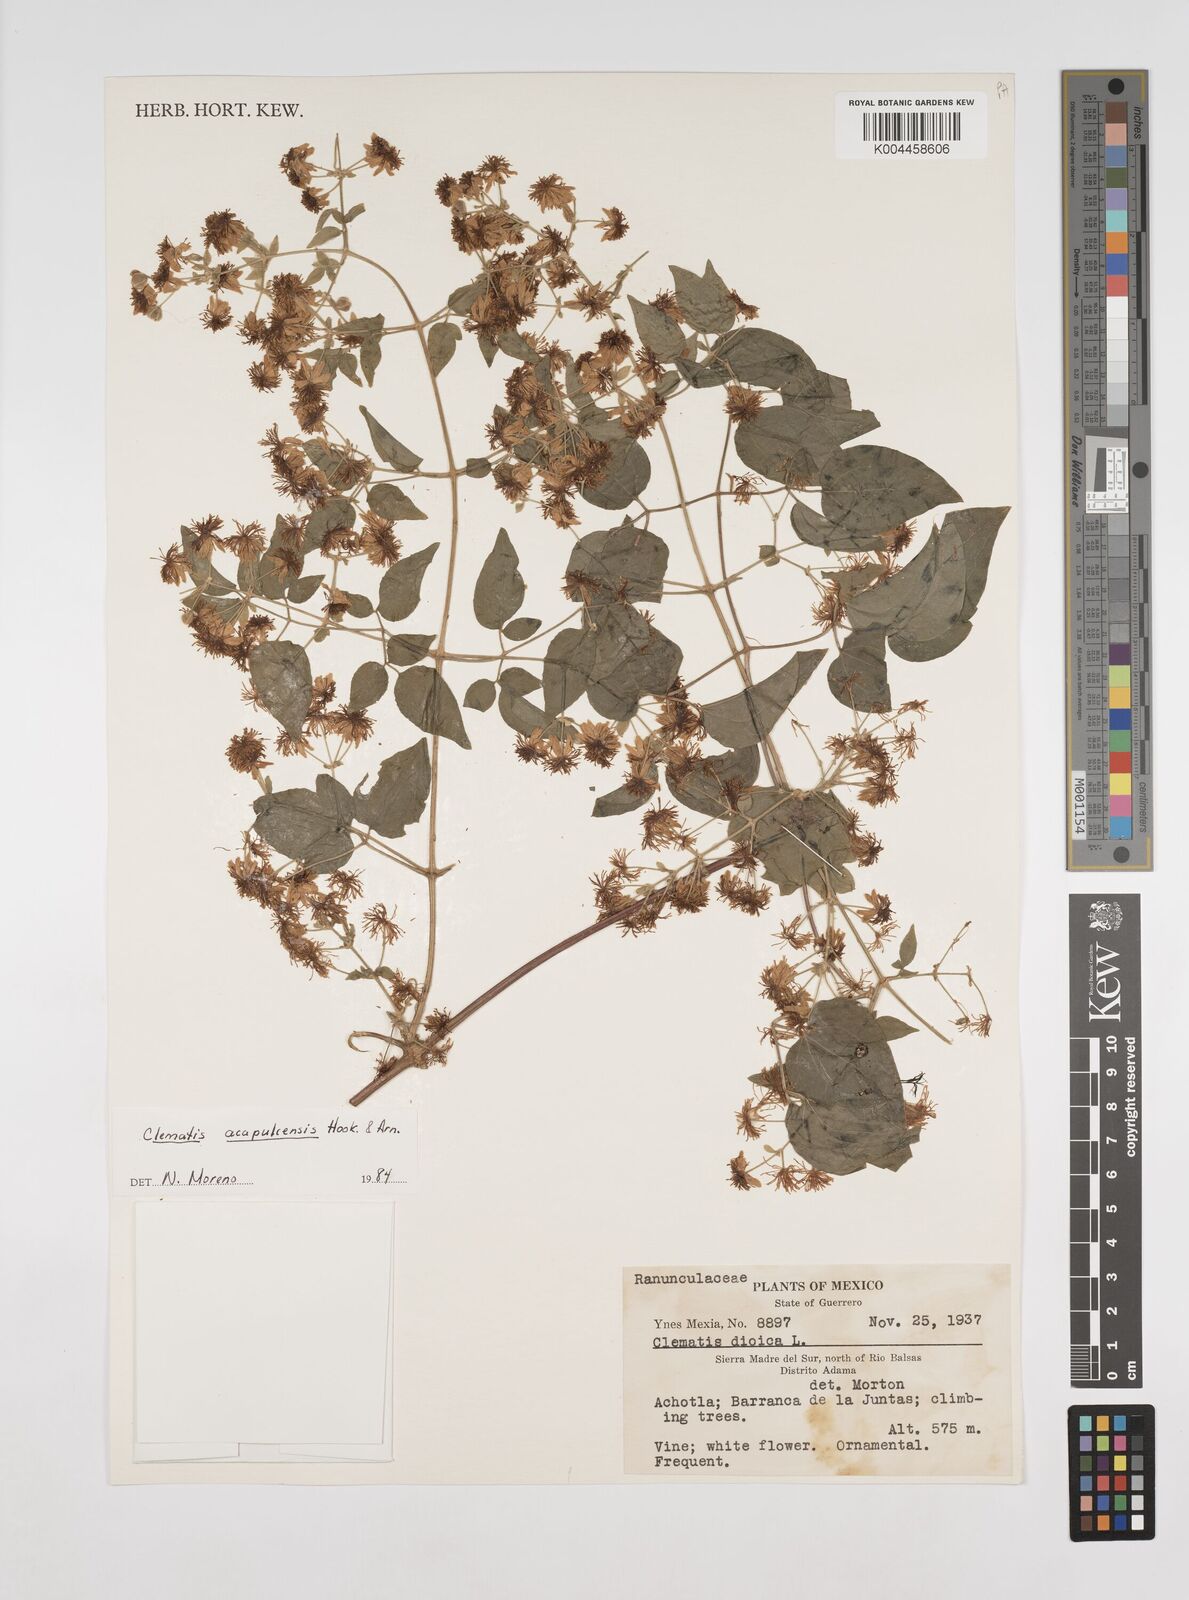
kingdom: Plantae
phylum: Tracheophyta
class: Magnoliopsida
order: Ranunculales
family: Ranunculaceae
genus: Clematis
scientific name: Clematis acapulcensis
